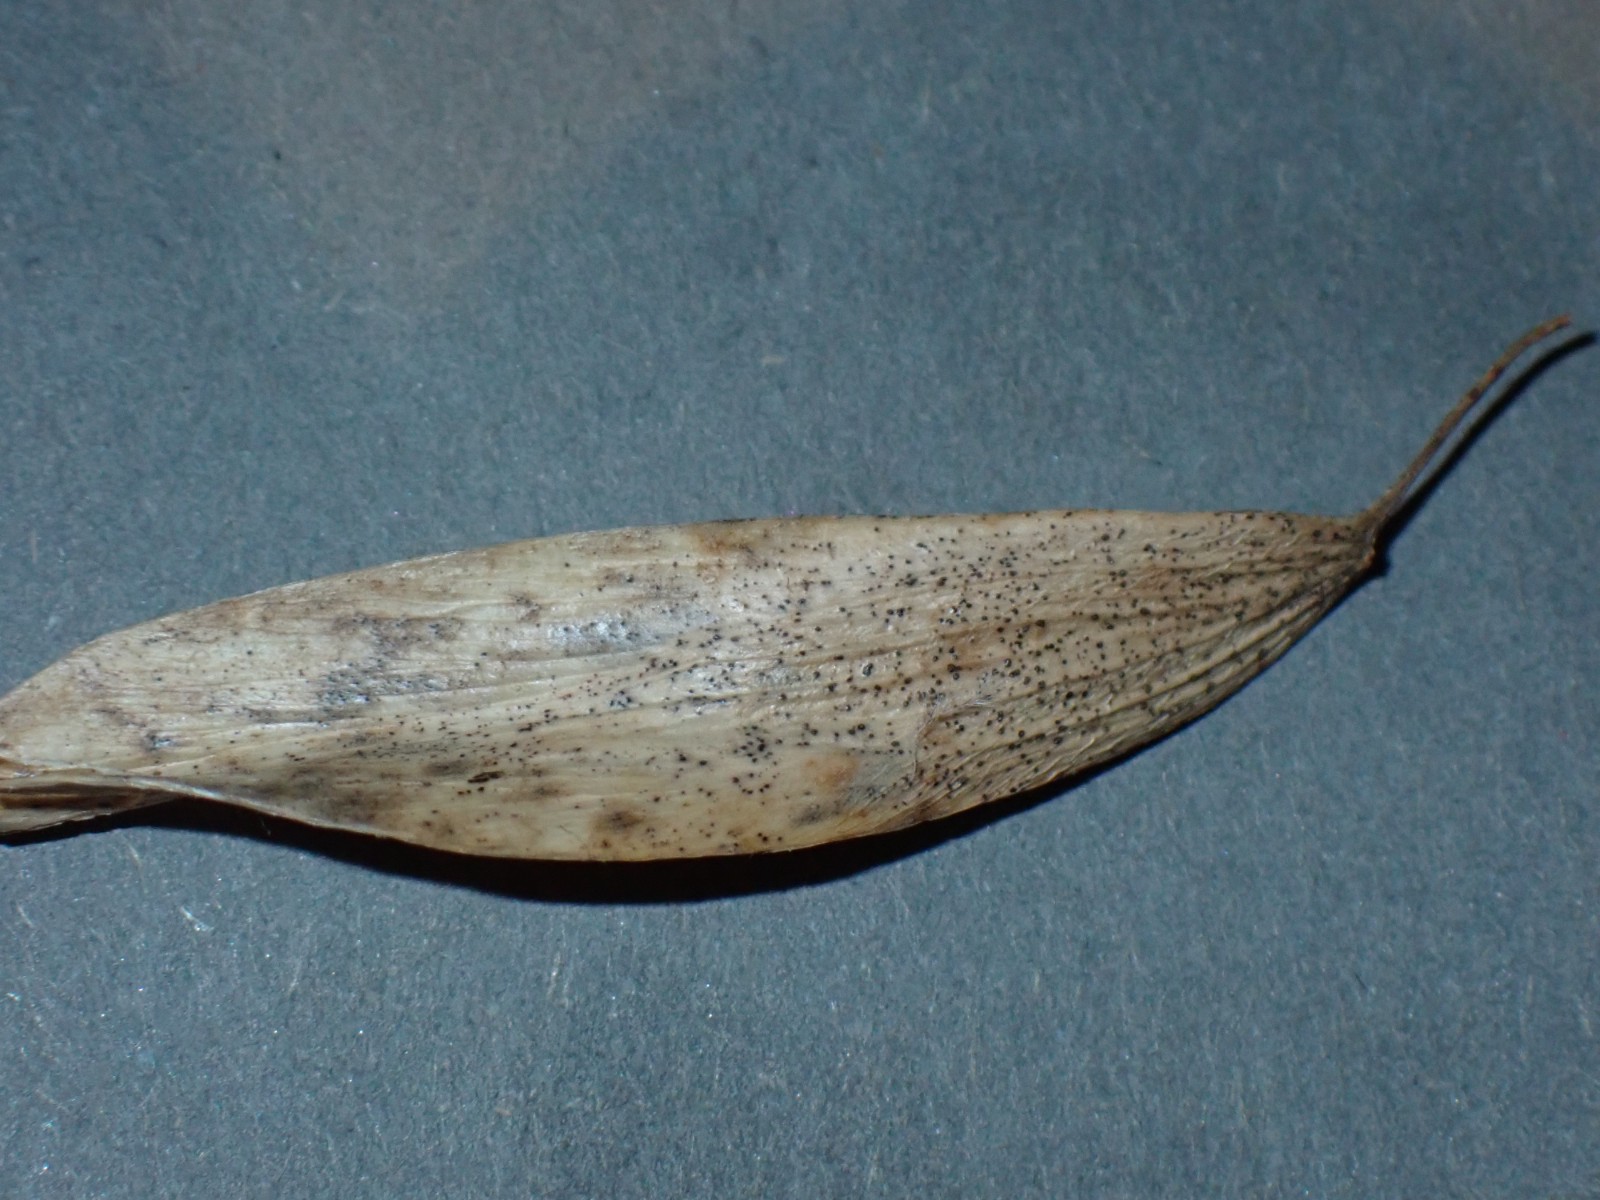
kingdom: Fungi
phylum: Ascomycota
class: Sordariomycetes
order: Diaporthales
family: Diaporthaceae
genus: Diaporthe
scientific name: Diaporthe samaricola
